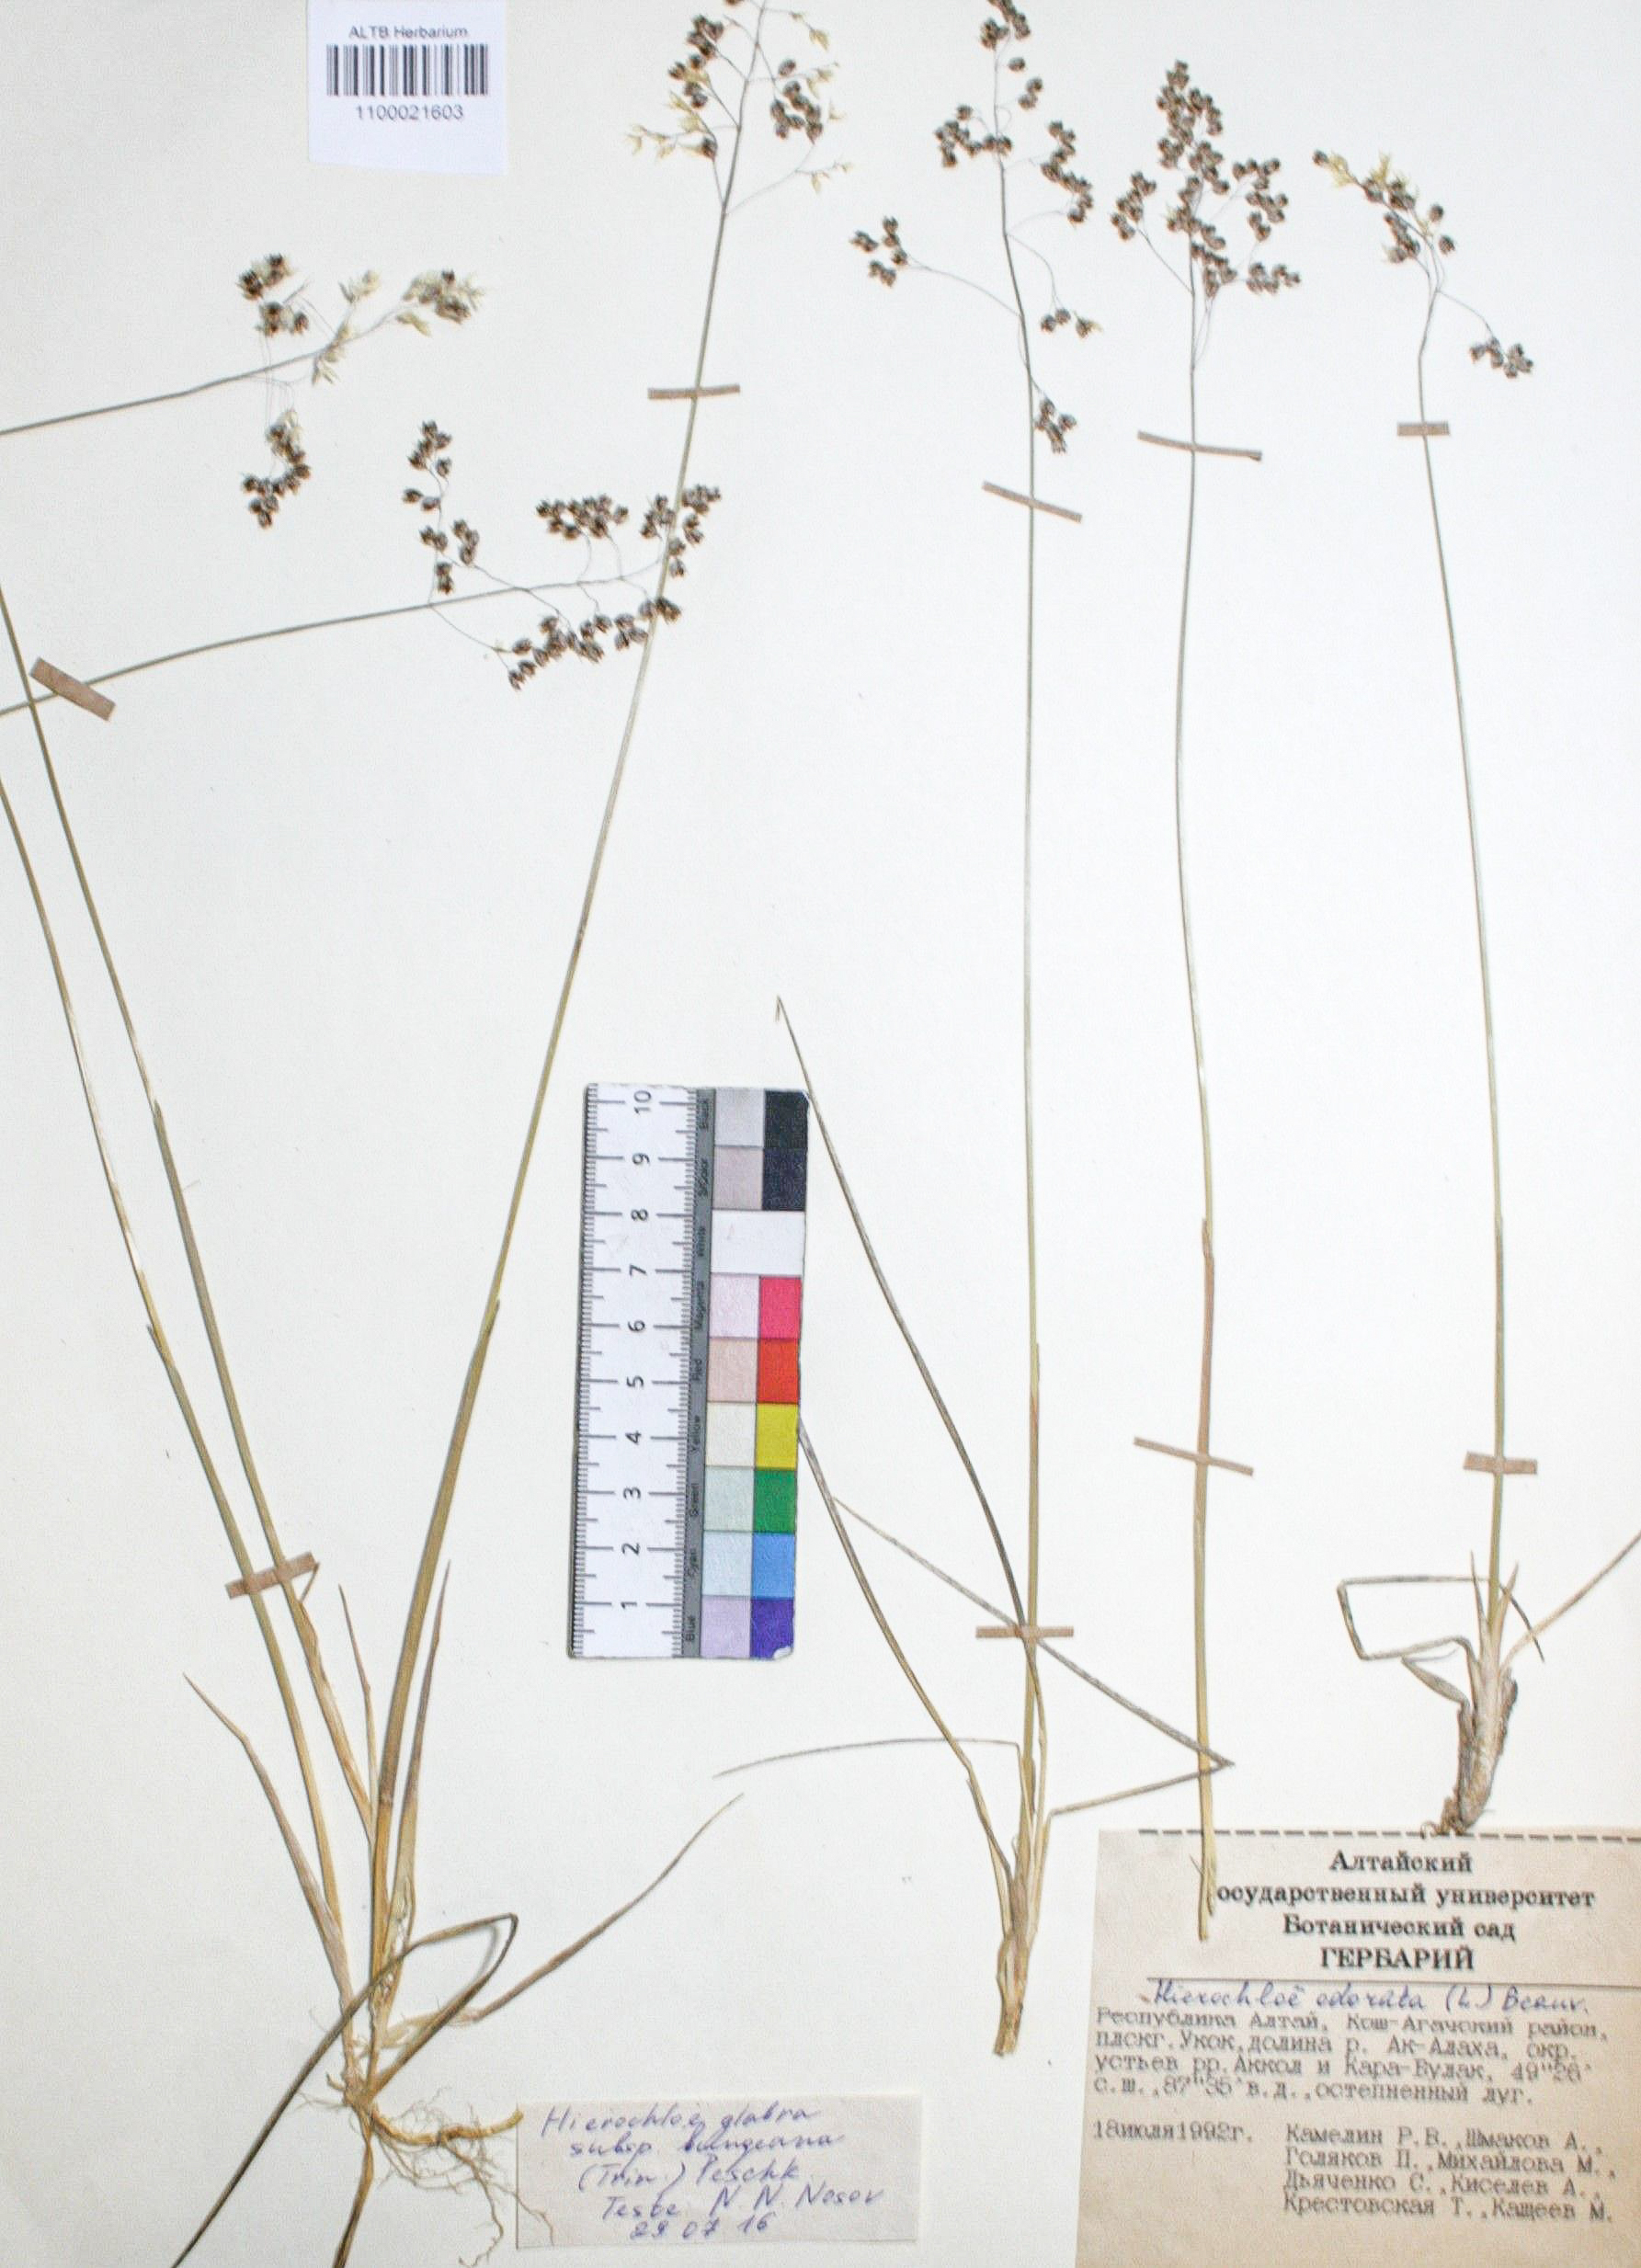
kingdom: Plantae
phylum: Tracheophyta
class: Liliopsida
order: Poales
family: Poaceae
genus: Anthoxanthum
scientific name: Anthoxanthum glabrum
